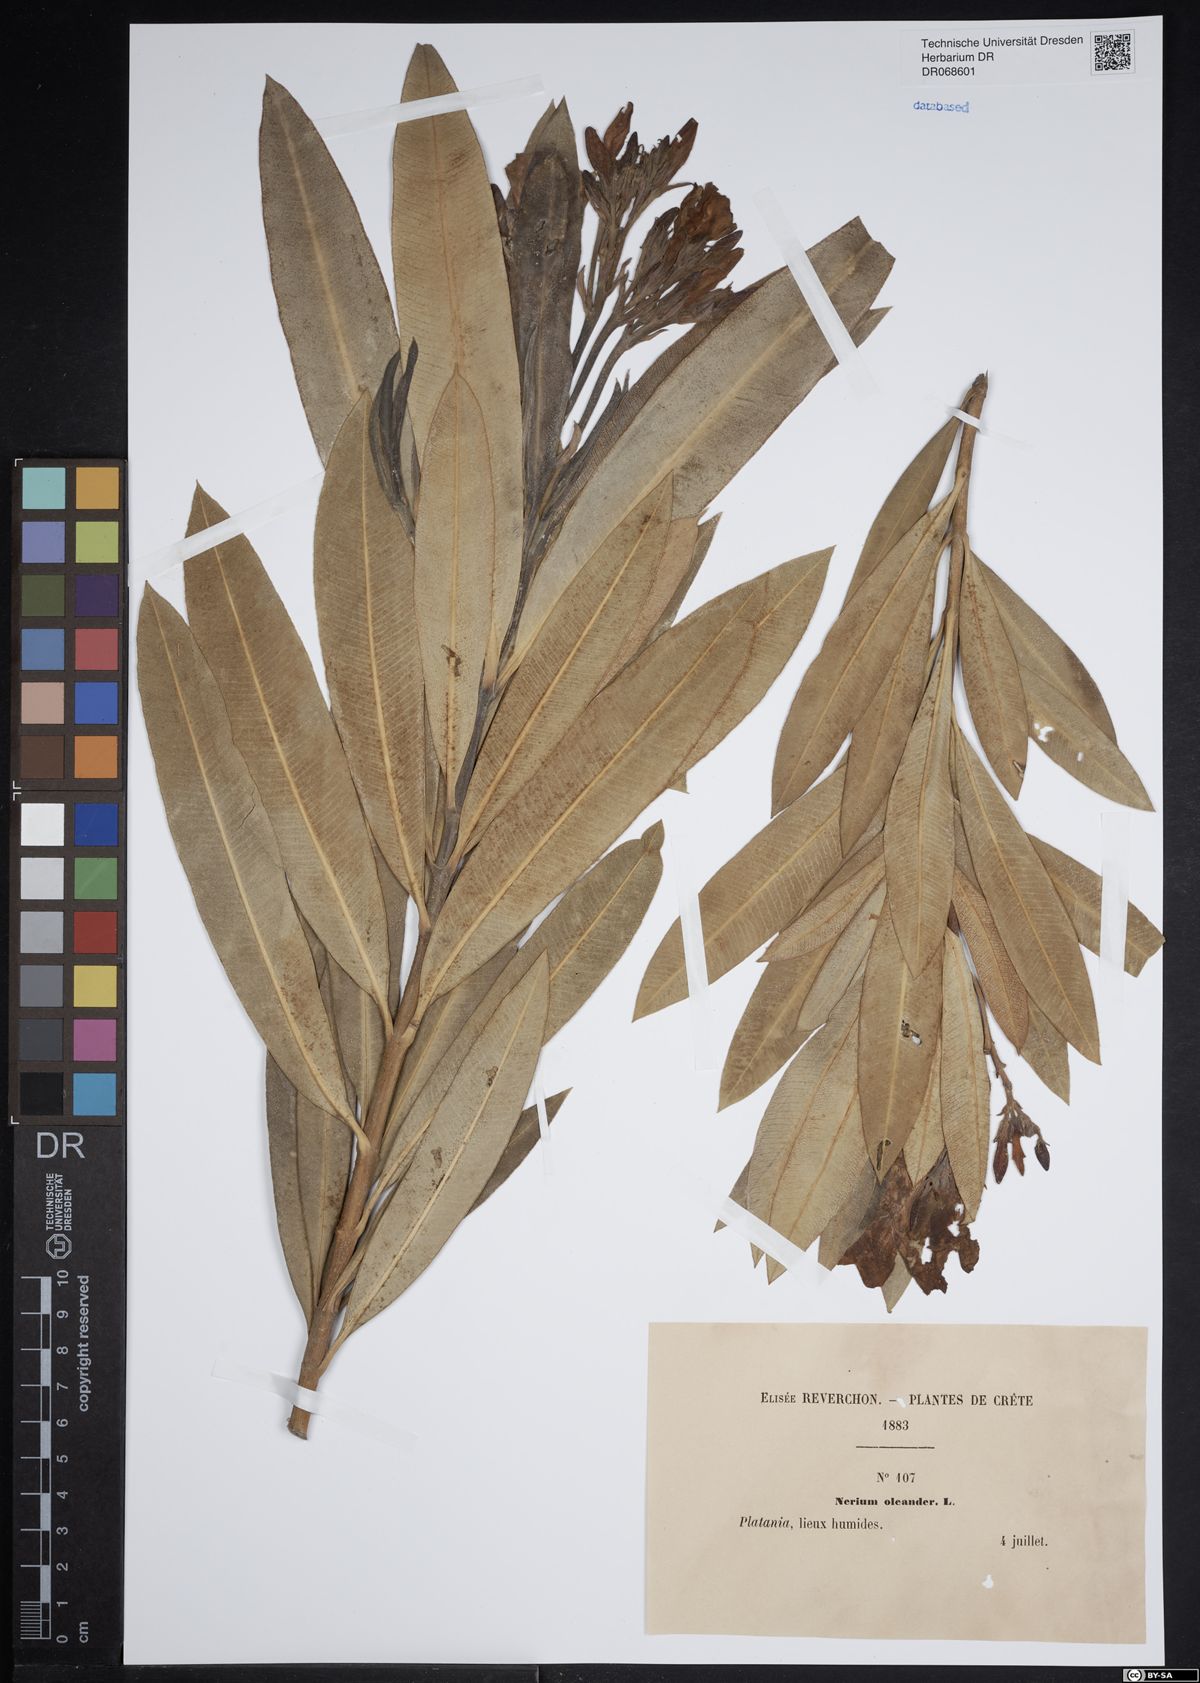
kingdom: Plantae
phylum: Tracheophyta
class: Magnoliopsida
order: Gentianales
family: Apocynaceae
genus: Nerium
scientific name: Nerium oleander
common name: Oleander
